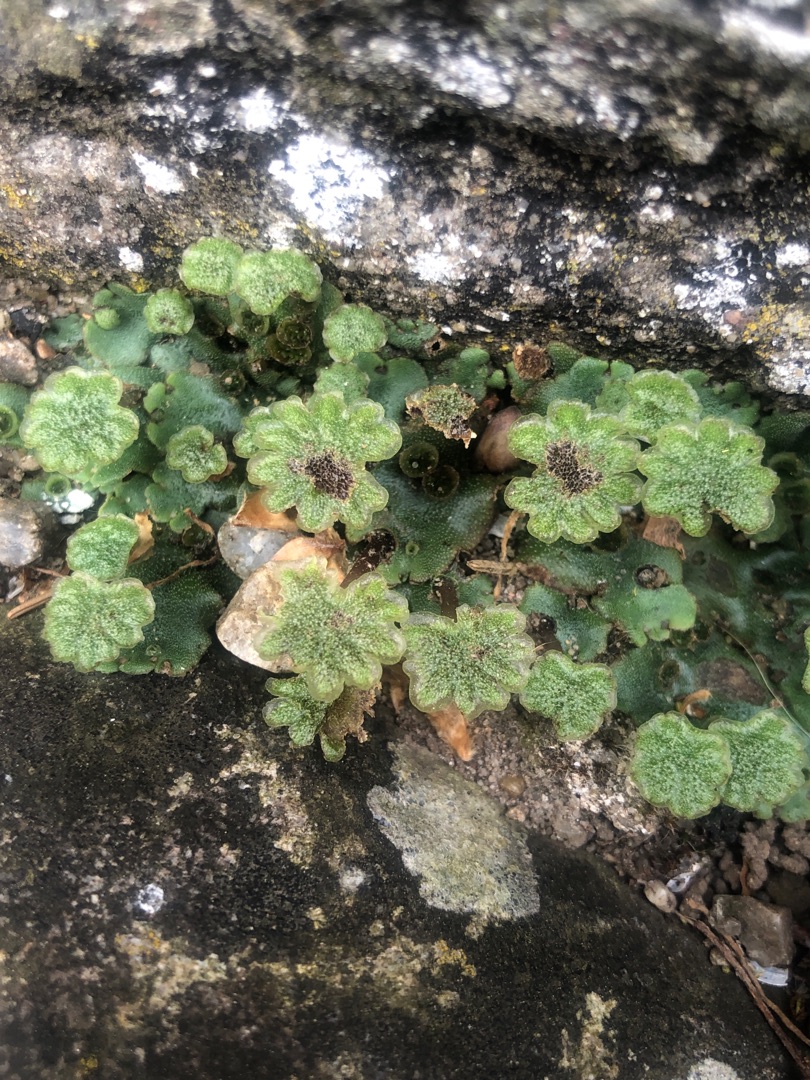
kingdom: Plantae
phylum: Marchantiophyta
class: Marchantiopsida
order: Marchantiales
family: Marchantiaceae
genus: Marchantia
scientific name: Marchantia polymorpha
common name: Almindelig lungemos (underart)
